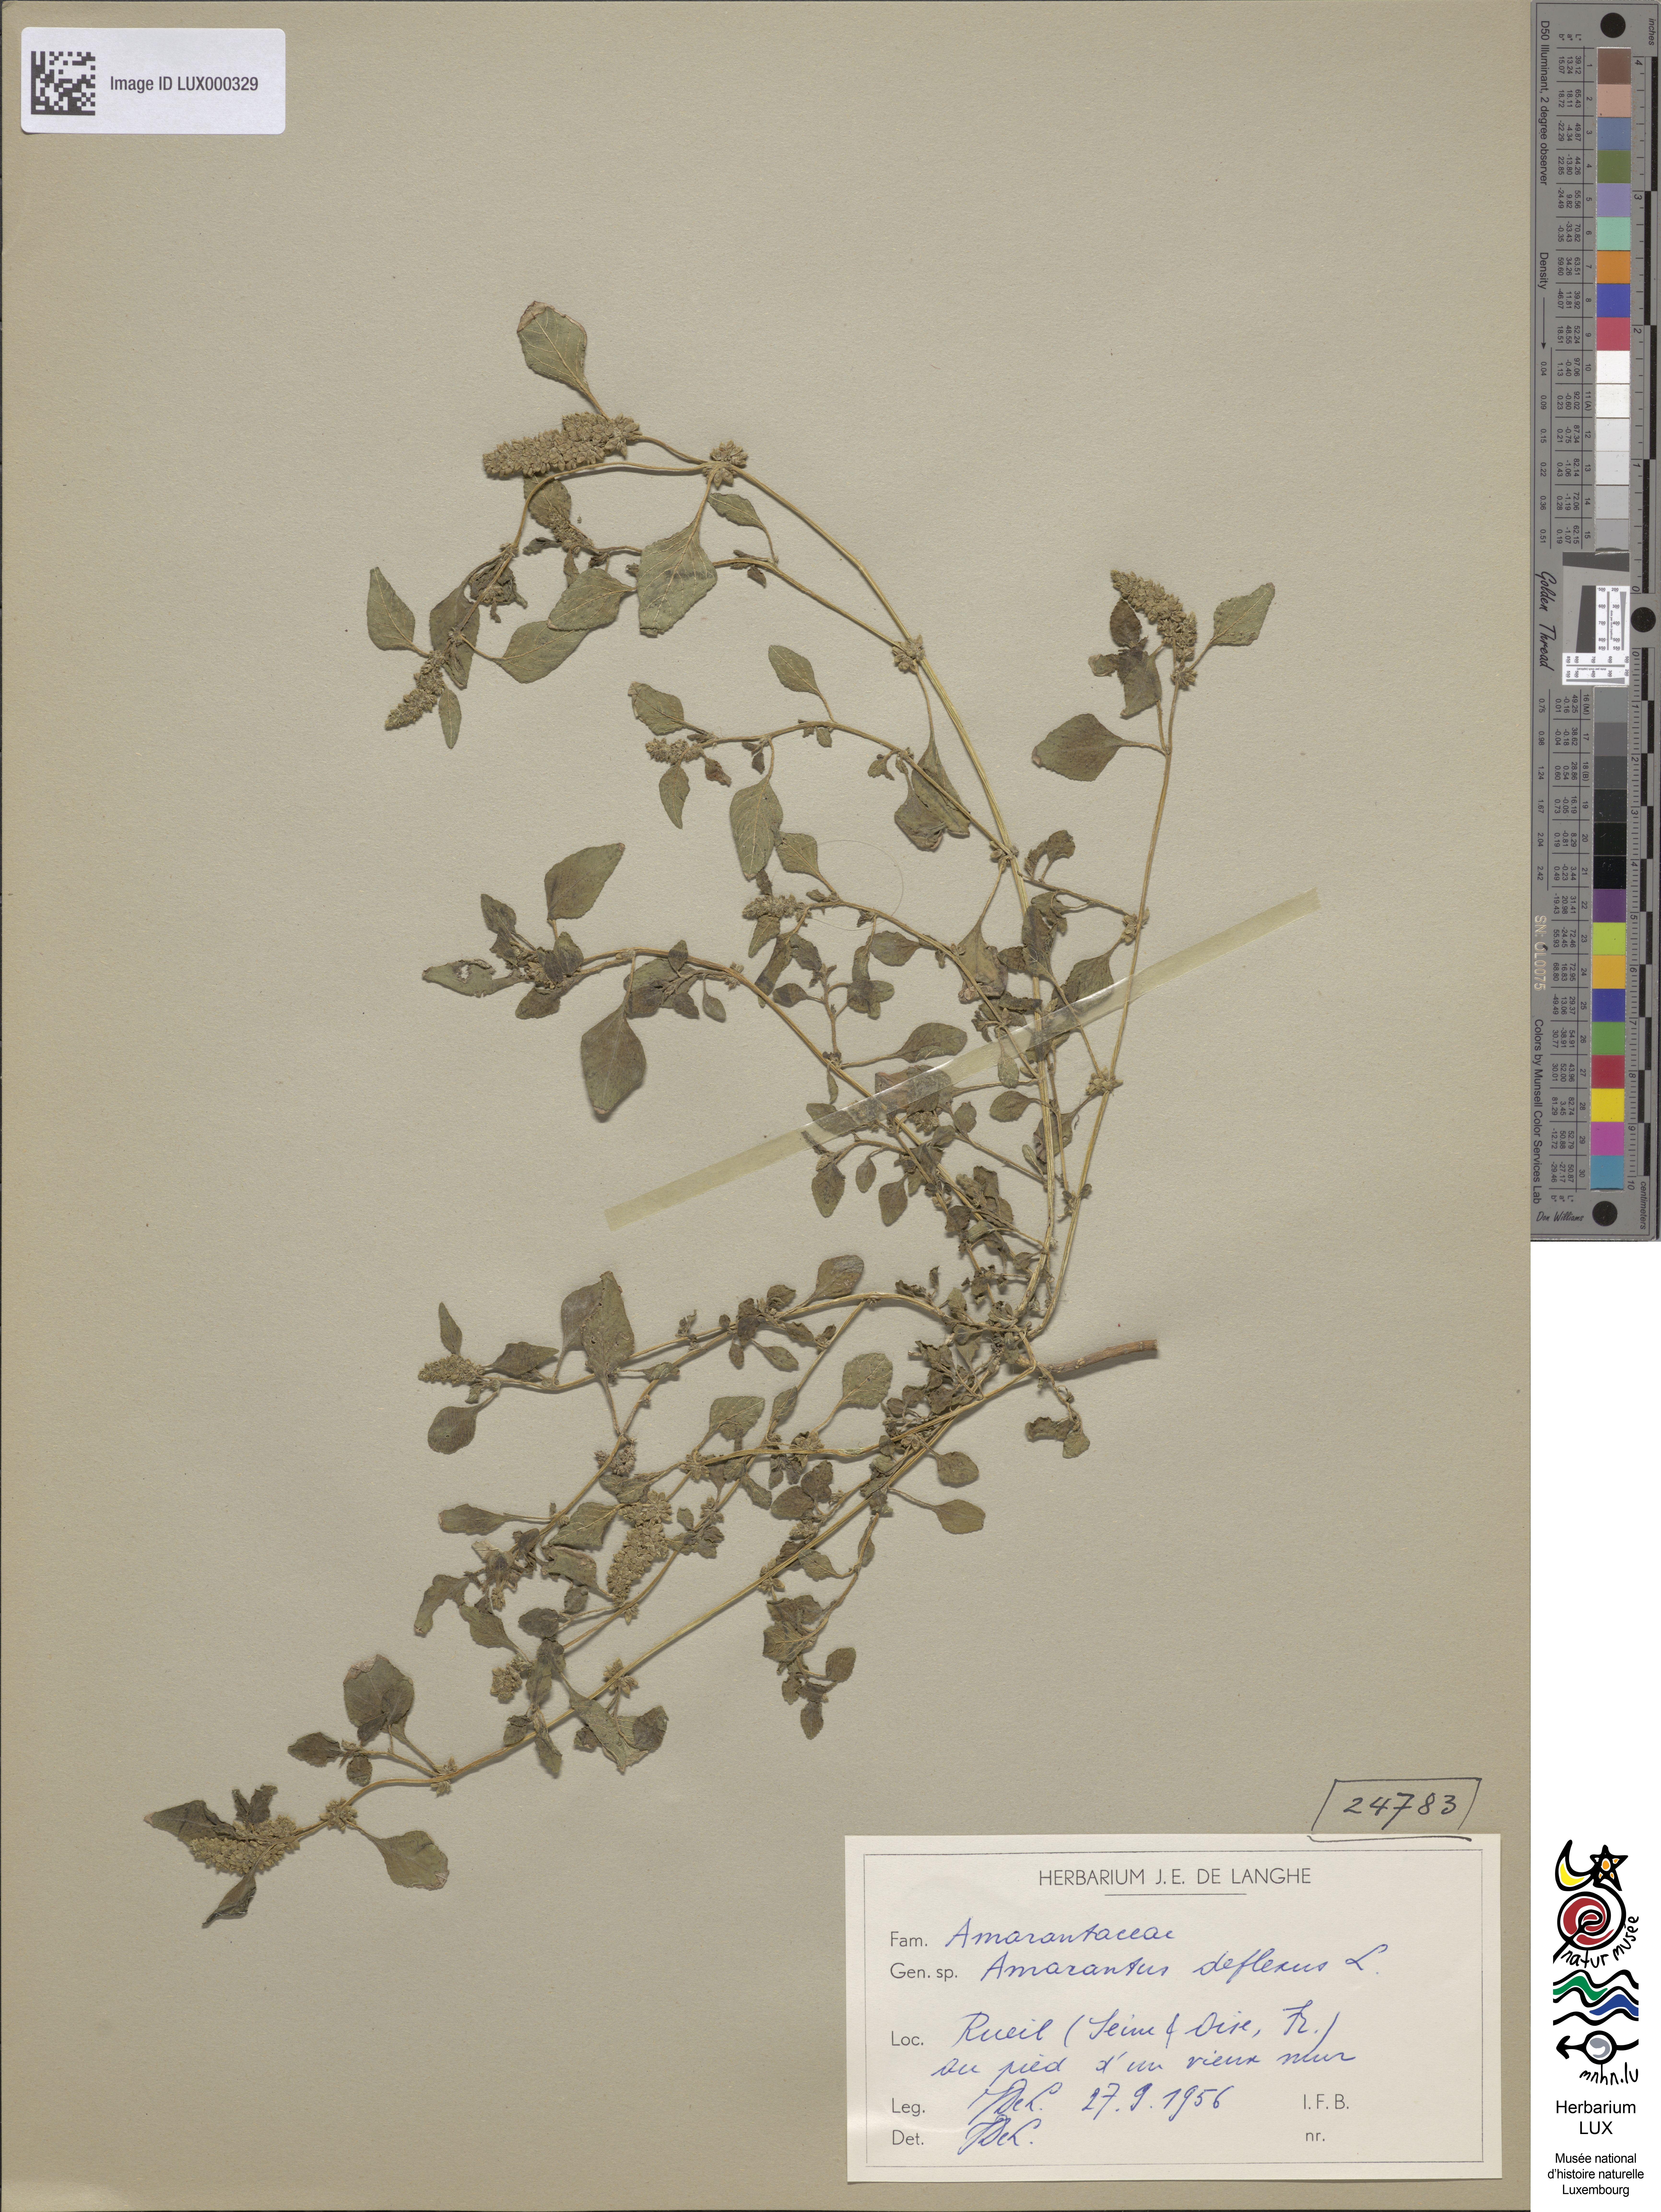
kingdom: Plantae
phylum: Tracheophyta
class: Magnoliopsida
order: Caryophyllales
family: Amaranthaceae
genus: Amaranthus
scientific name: Amaranthus deflexus
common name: Perennial pigweed
